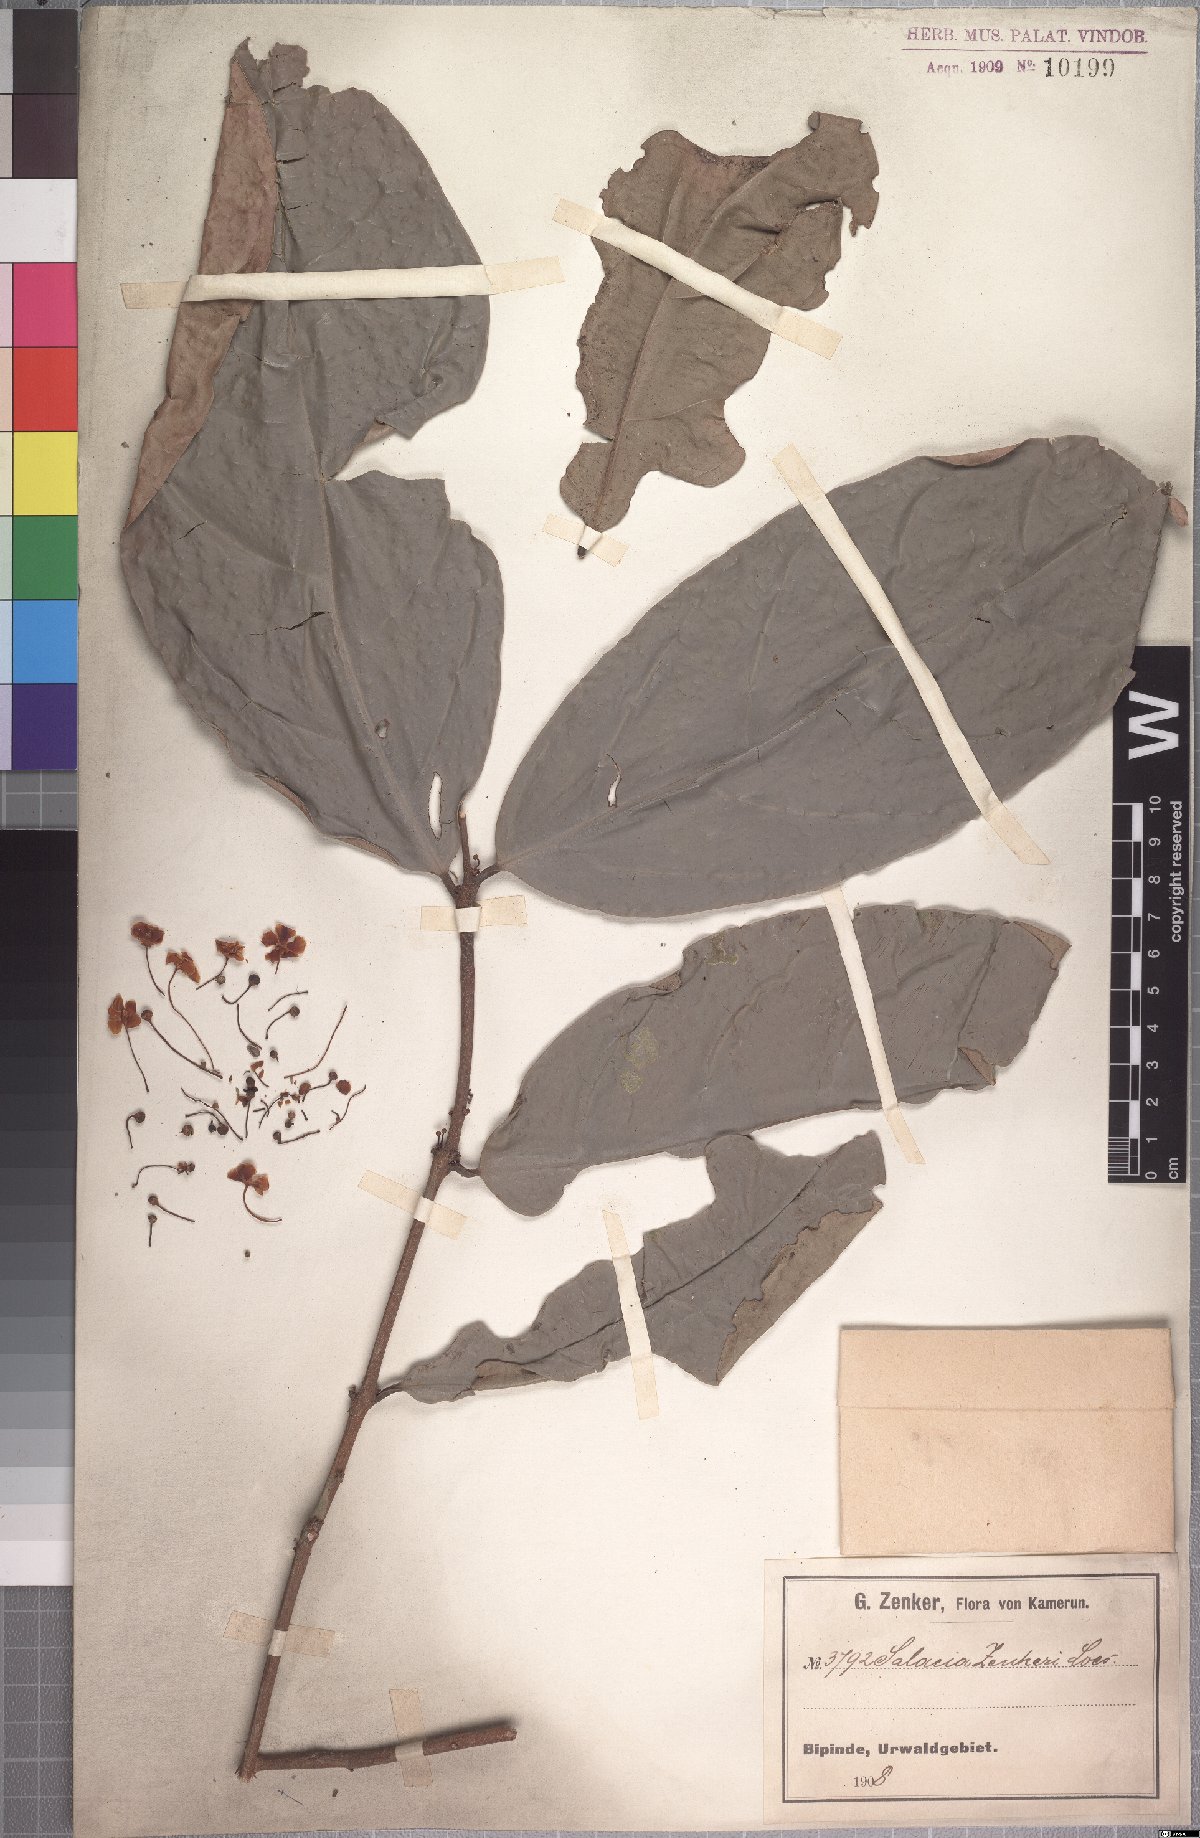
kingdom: Plantae
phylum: Tracheophyta
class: Magnoliopsida
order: Celastrales
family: Celastraceae
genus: Salacia
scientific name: Salacia zenkeri
